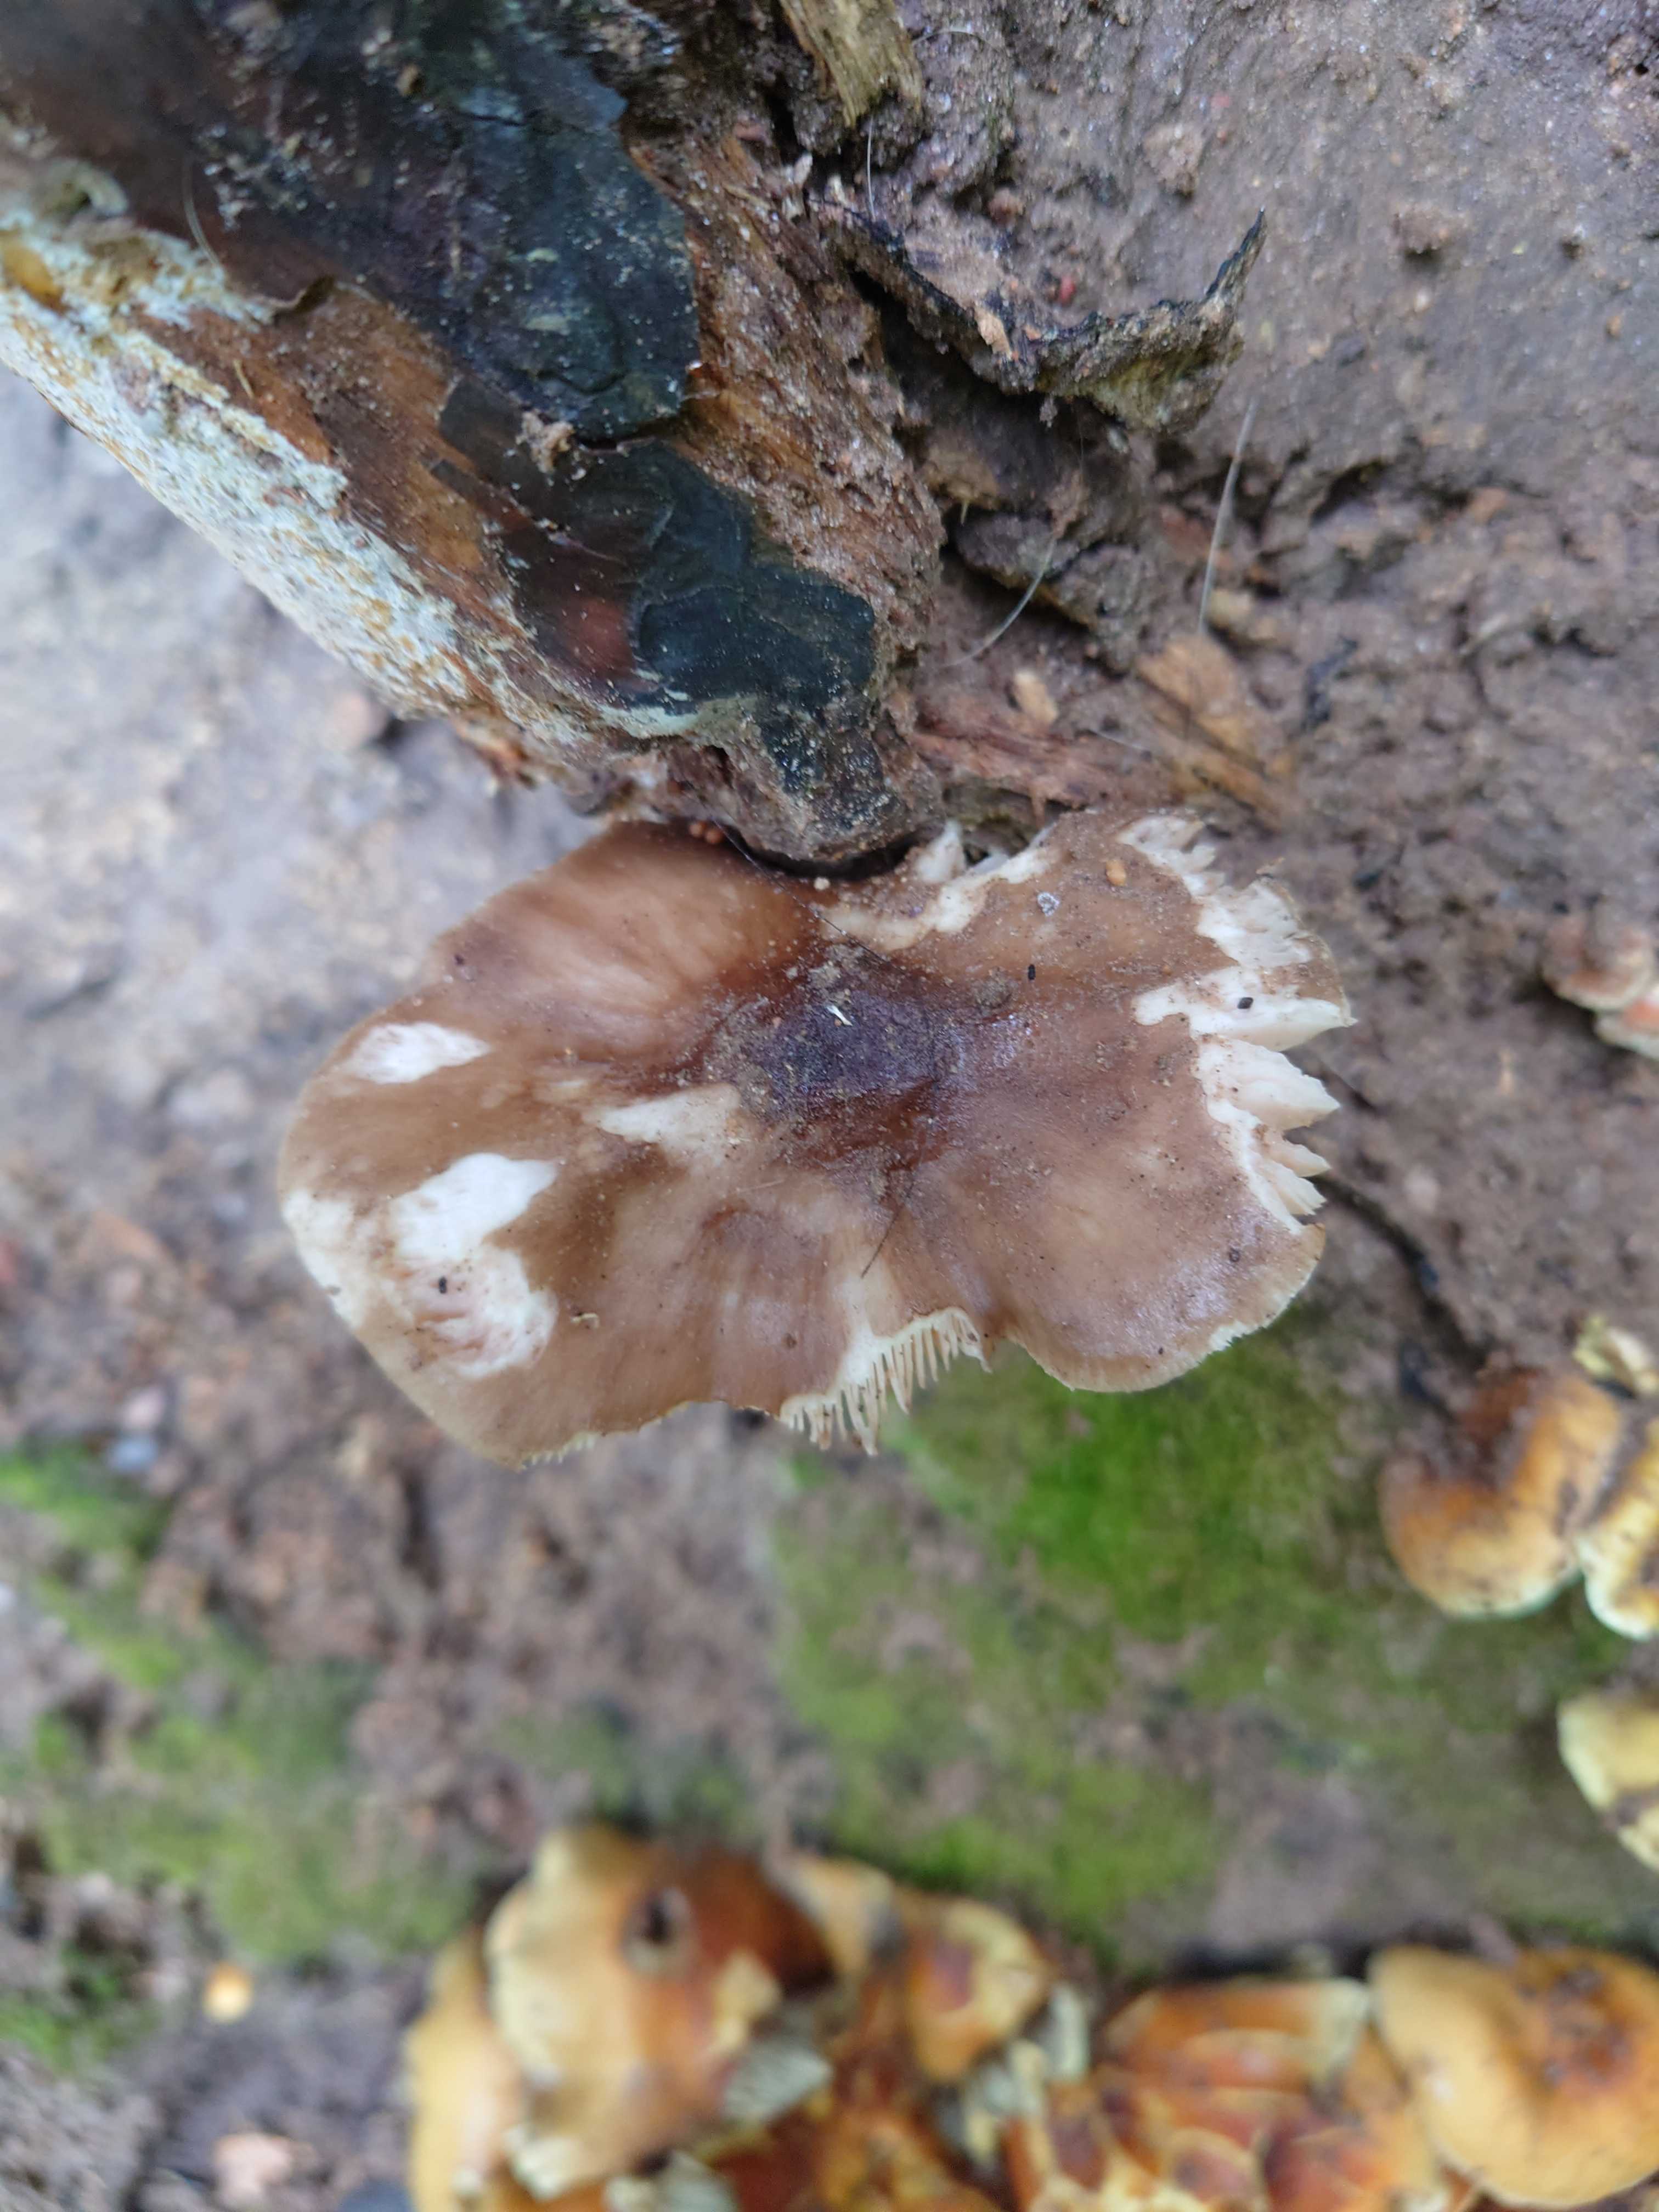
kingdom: Fungi
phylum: Basidiomycota
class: Agaricomycetes
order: Agaricales
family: Pluteaceae
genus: Pluteus
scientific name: Pluteus cervinus
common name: sodfarvet skærmhat
